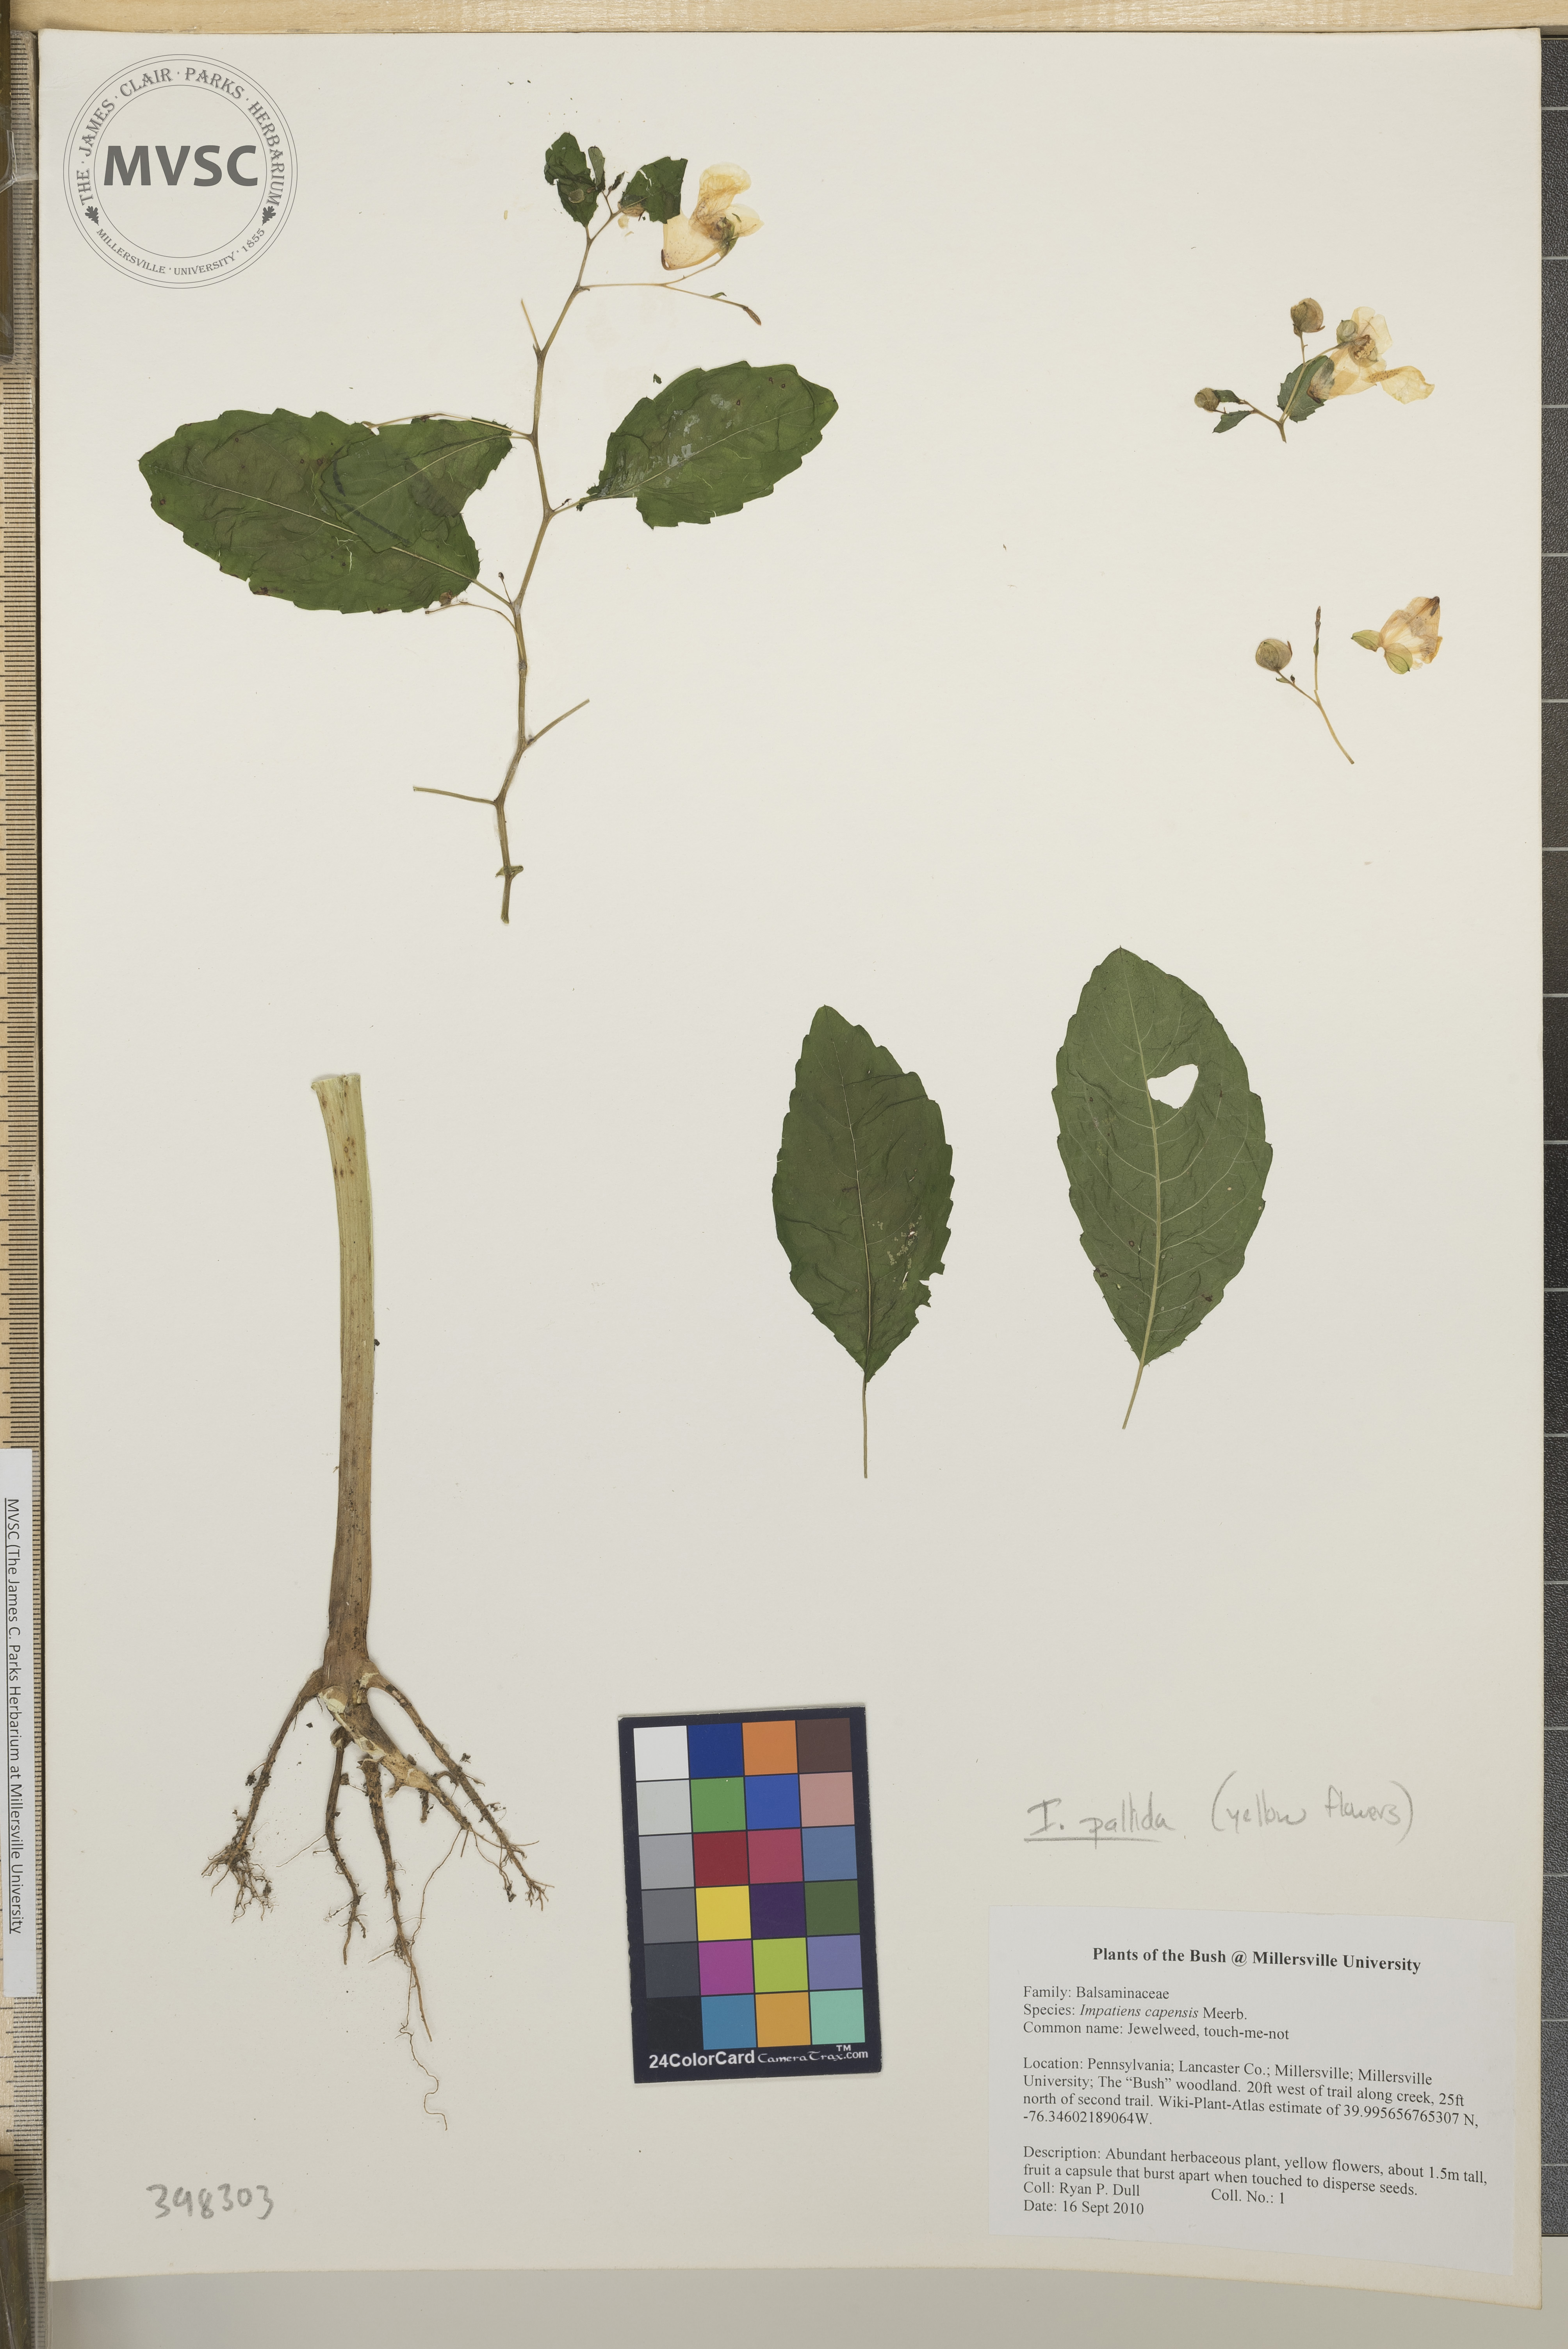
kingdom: Plantae
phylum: Tracheophyta
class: Magnoliopsida
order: Ericales
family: Balsaminaceae
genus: Impatiens
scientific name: Impatiens pallida
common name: Pale jewelweed
